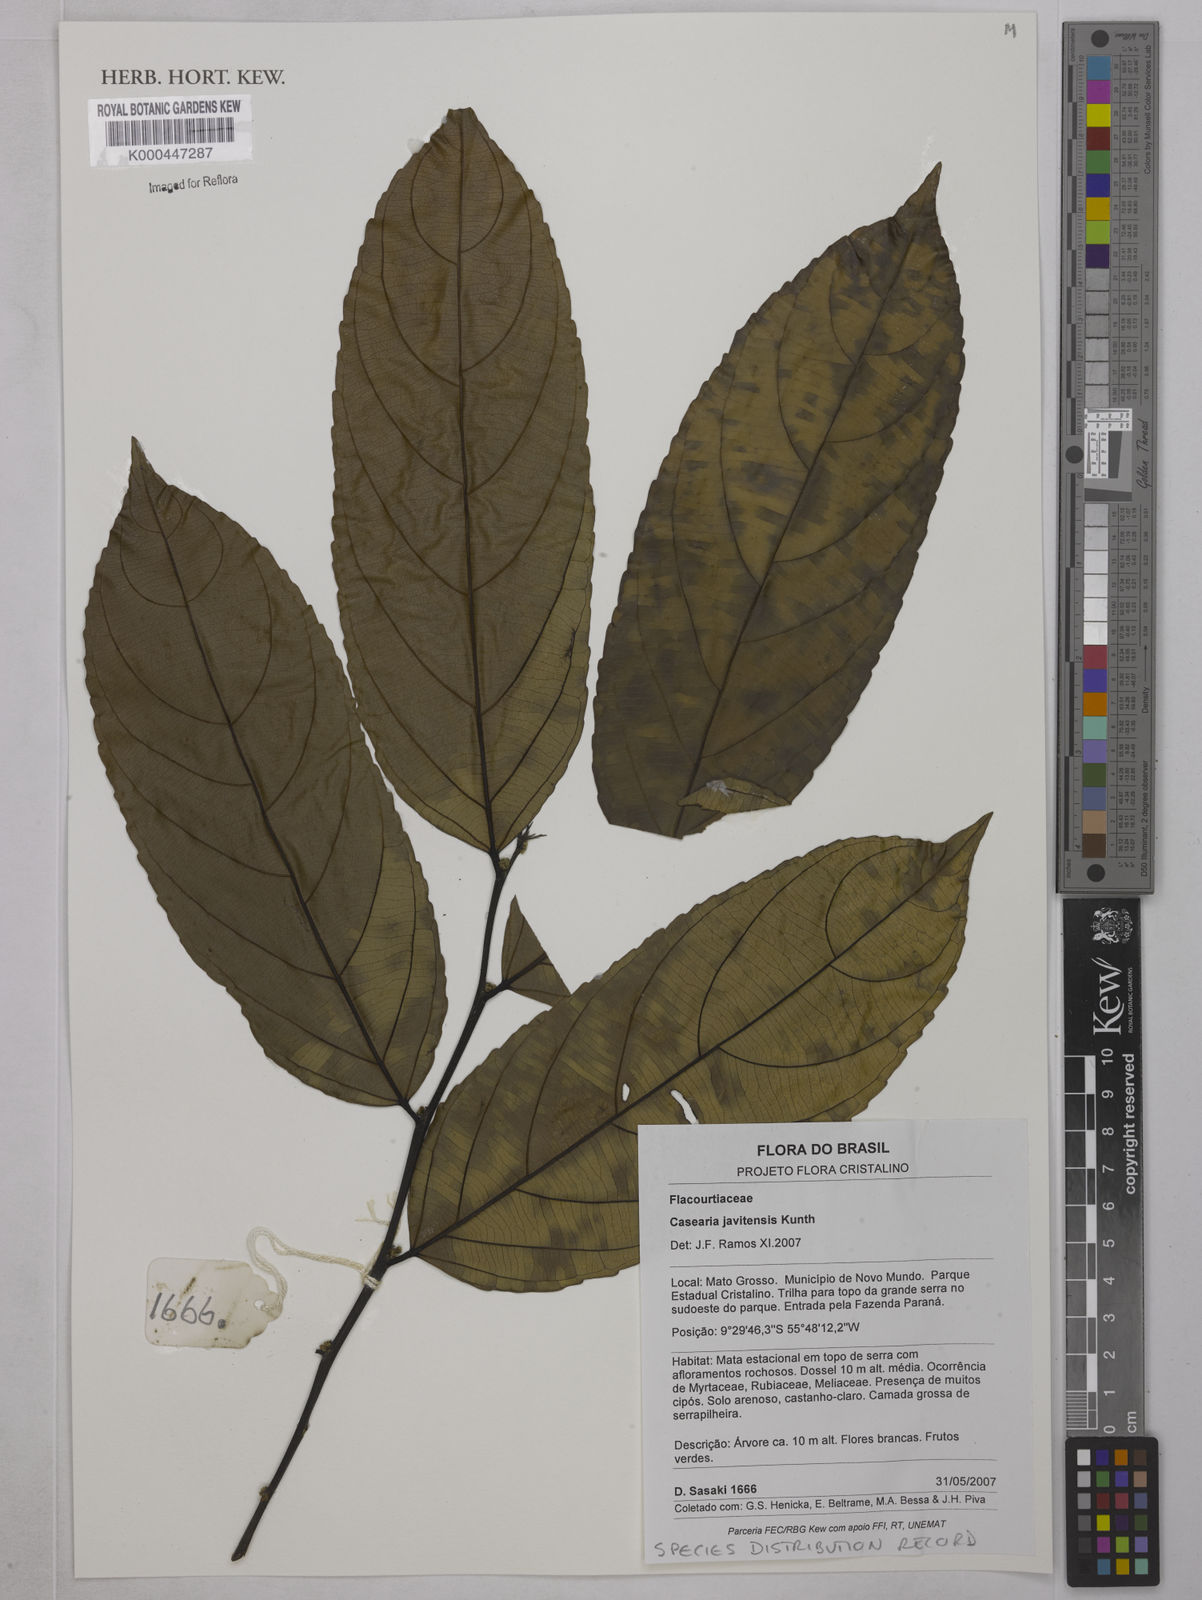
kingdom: Plantae
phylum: Tracheophyta
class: Magnoliopsida
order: Malpighiales
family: Salicaceae
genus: Piparea
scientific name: Piparea multiflora
